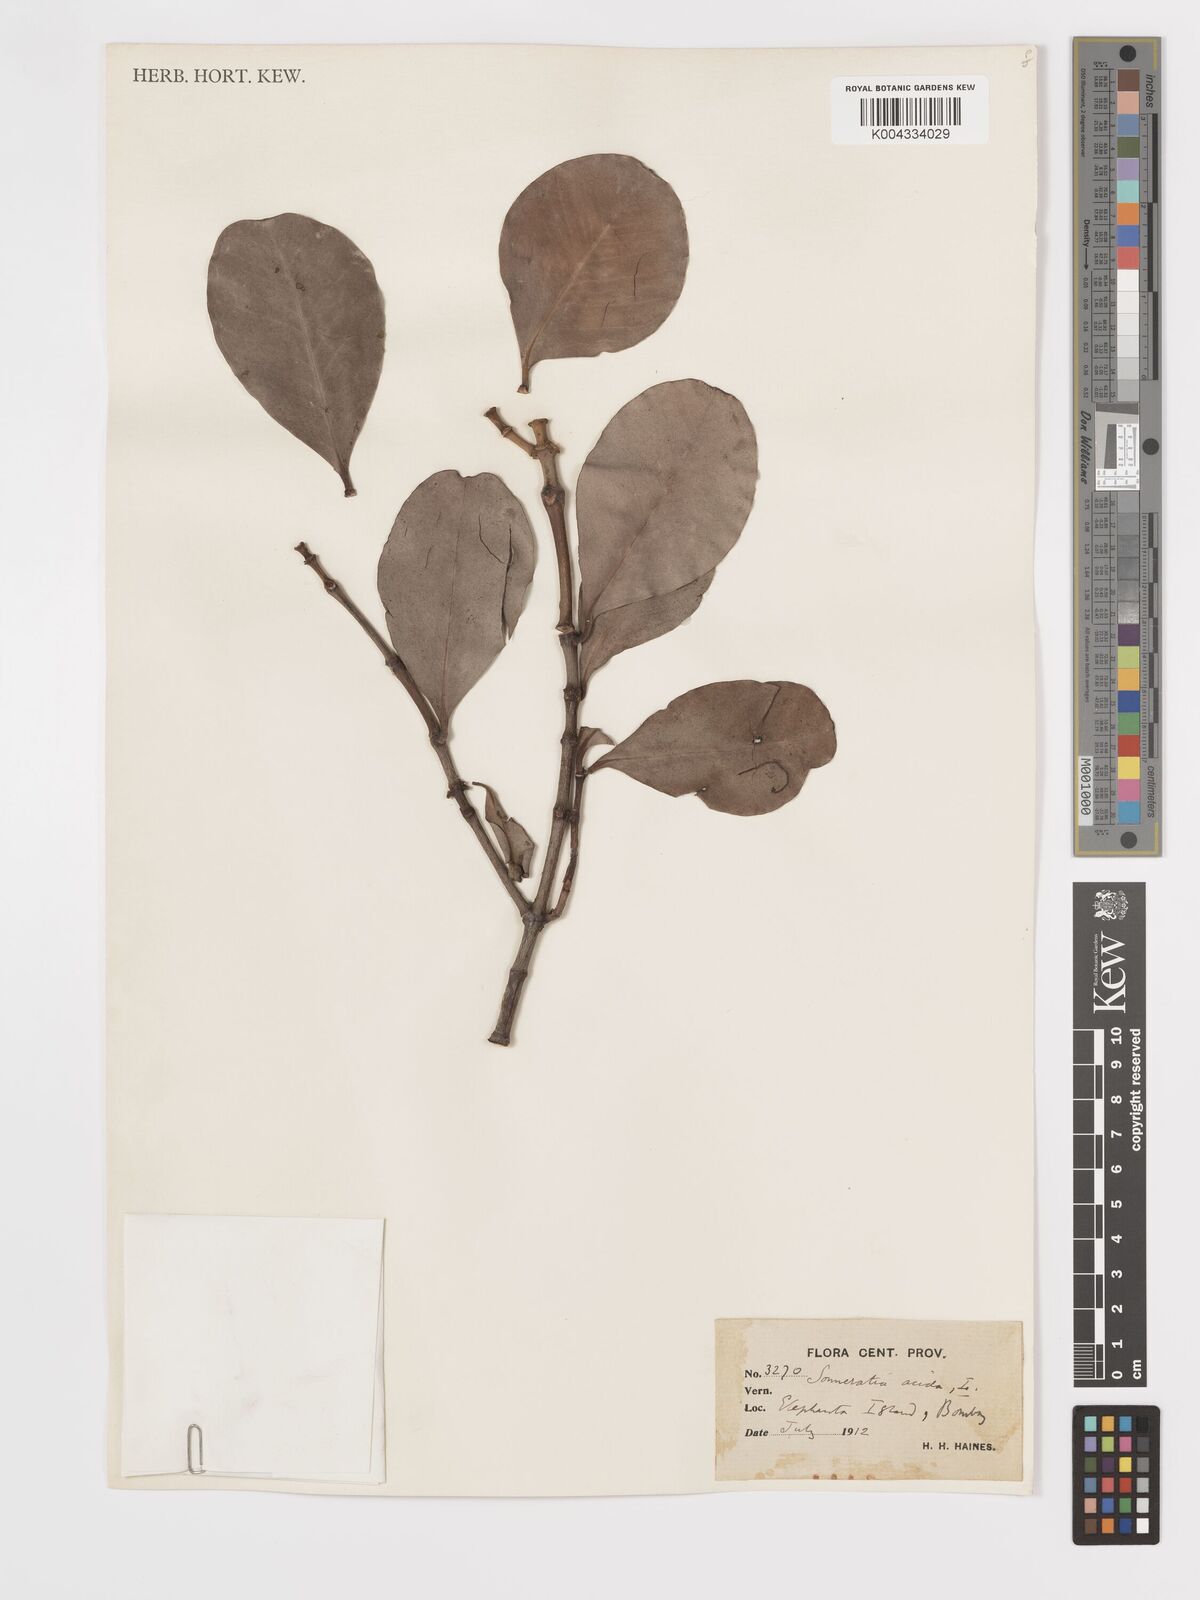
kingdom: Plantae
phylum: Tracheophyta
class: Magnoliopsida
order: Myrtales
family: Lythraceae
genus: Sonneratia
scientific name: Sonneratia caseolaris
